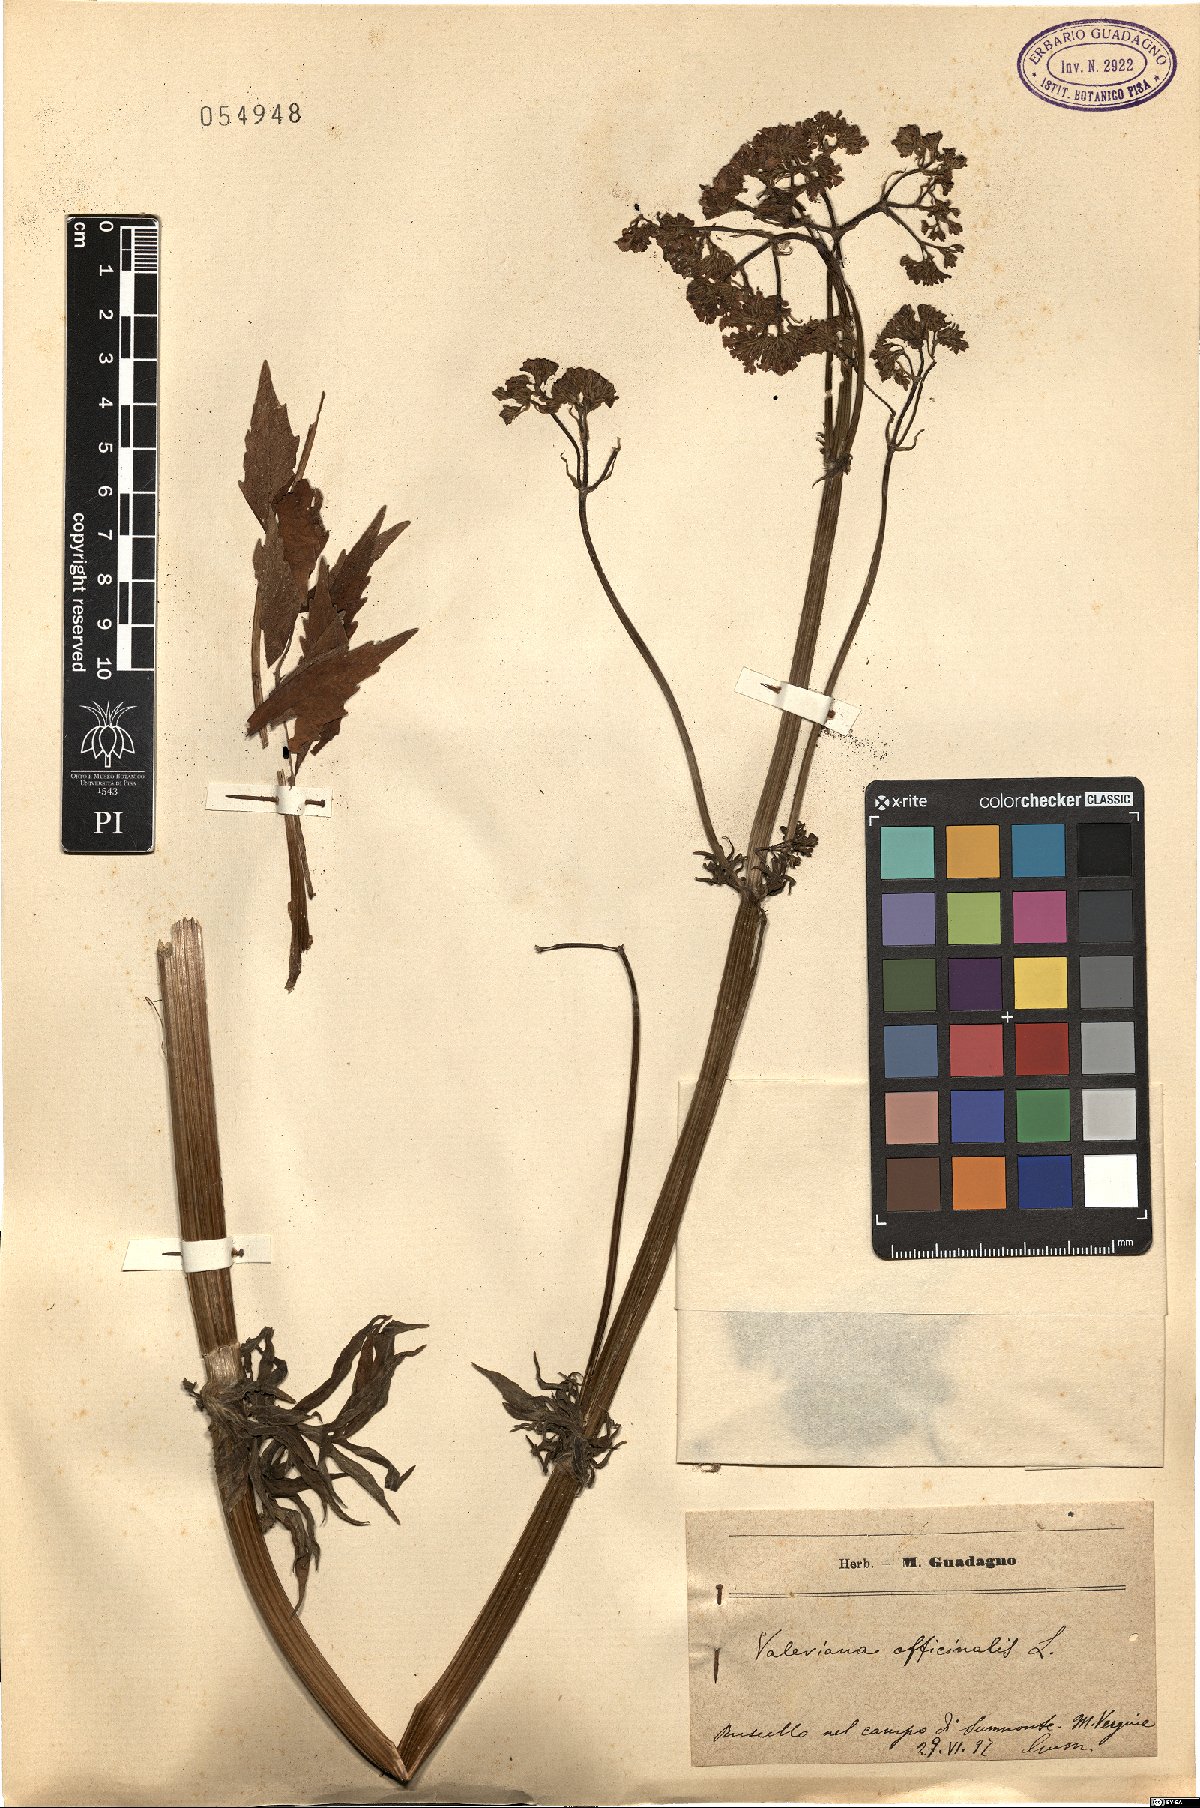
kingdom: Plantae
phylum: Tracheophyta
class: Magnoliopsida
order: Dipsacales
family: Caprifoliaceae
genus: Valeriana
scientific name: Valeriana officinalis
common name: Common valerian
